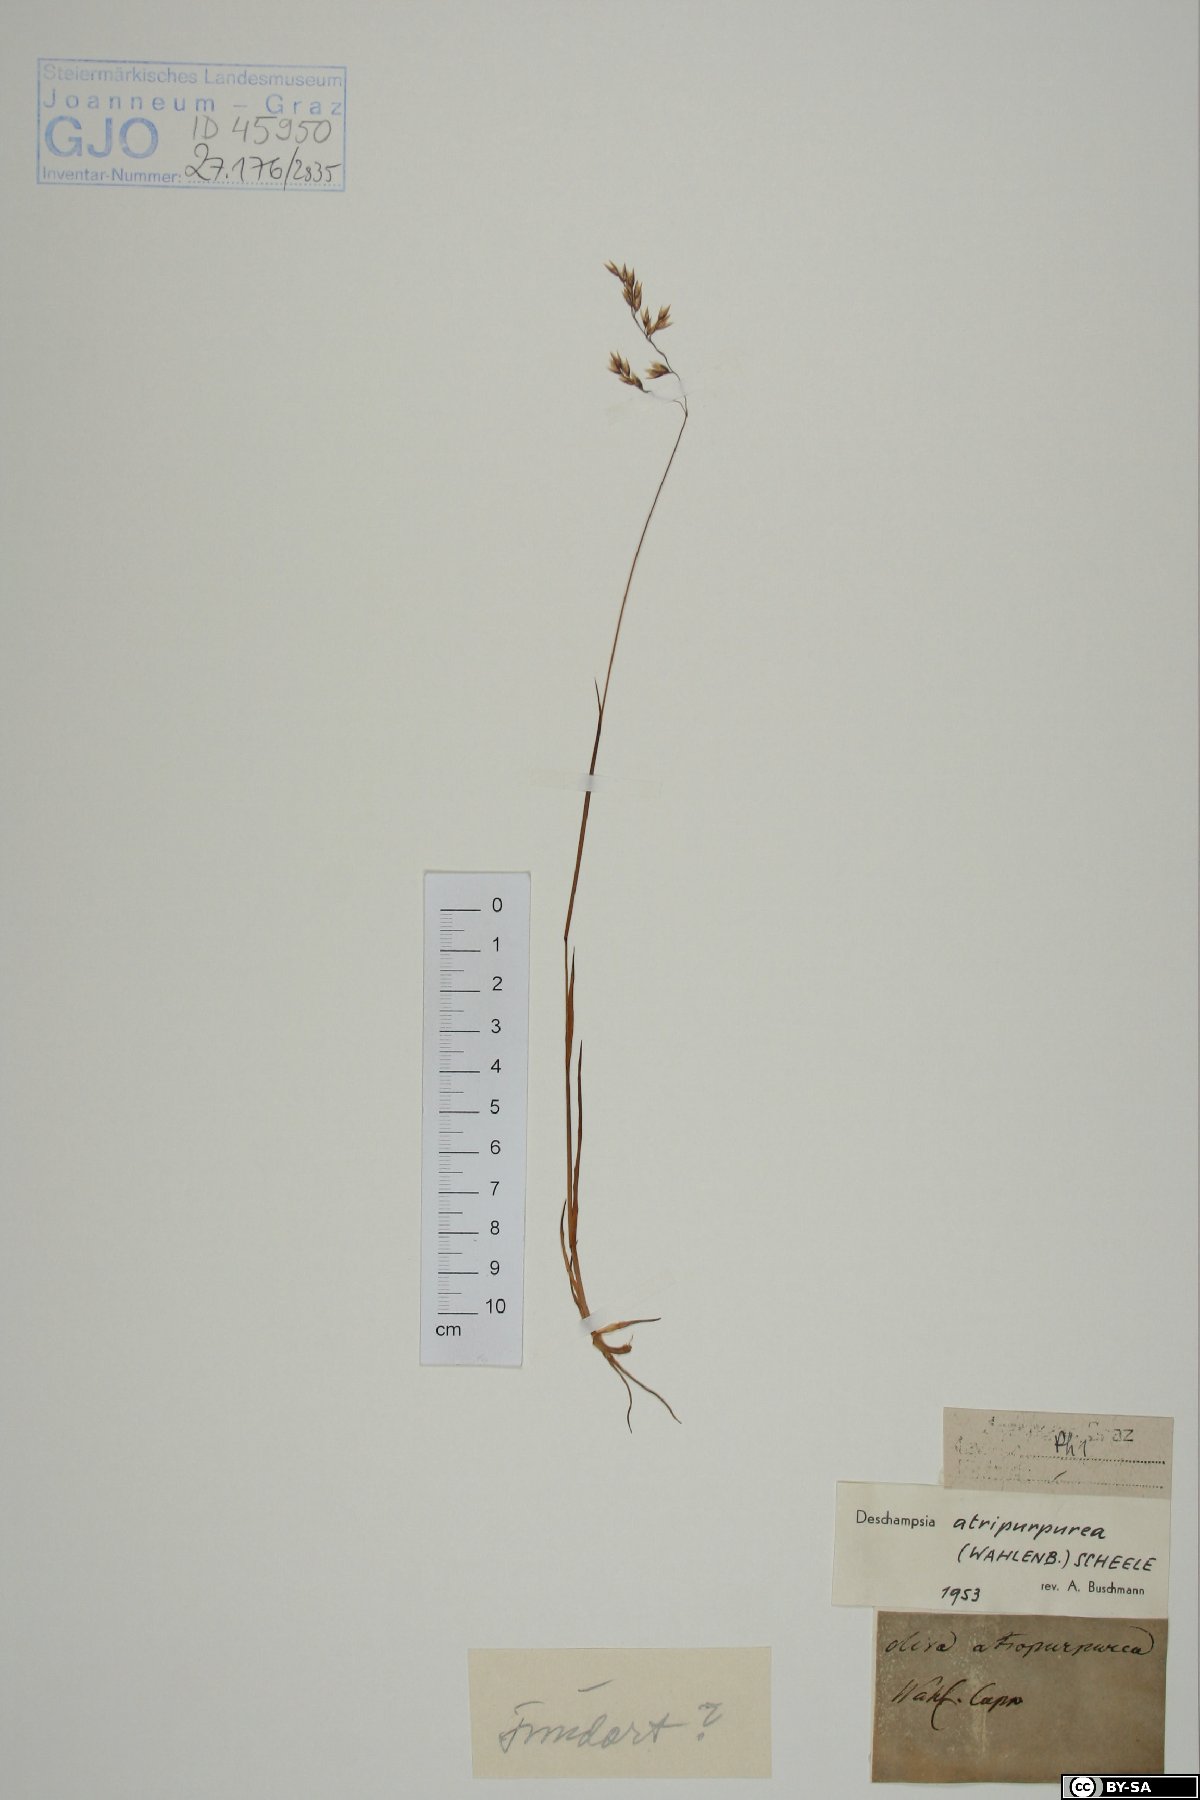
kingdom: Plantae
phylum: Tracheophyta
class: Liliopsida
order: Poales
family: Poaceae
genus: Vahlodea
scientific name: Vahlodea atropurpurea
